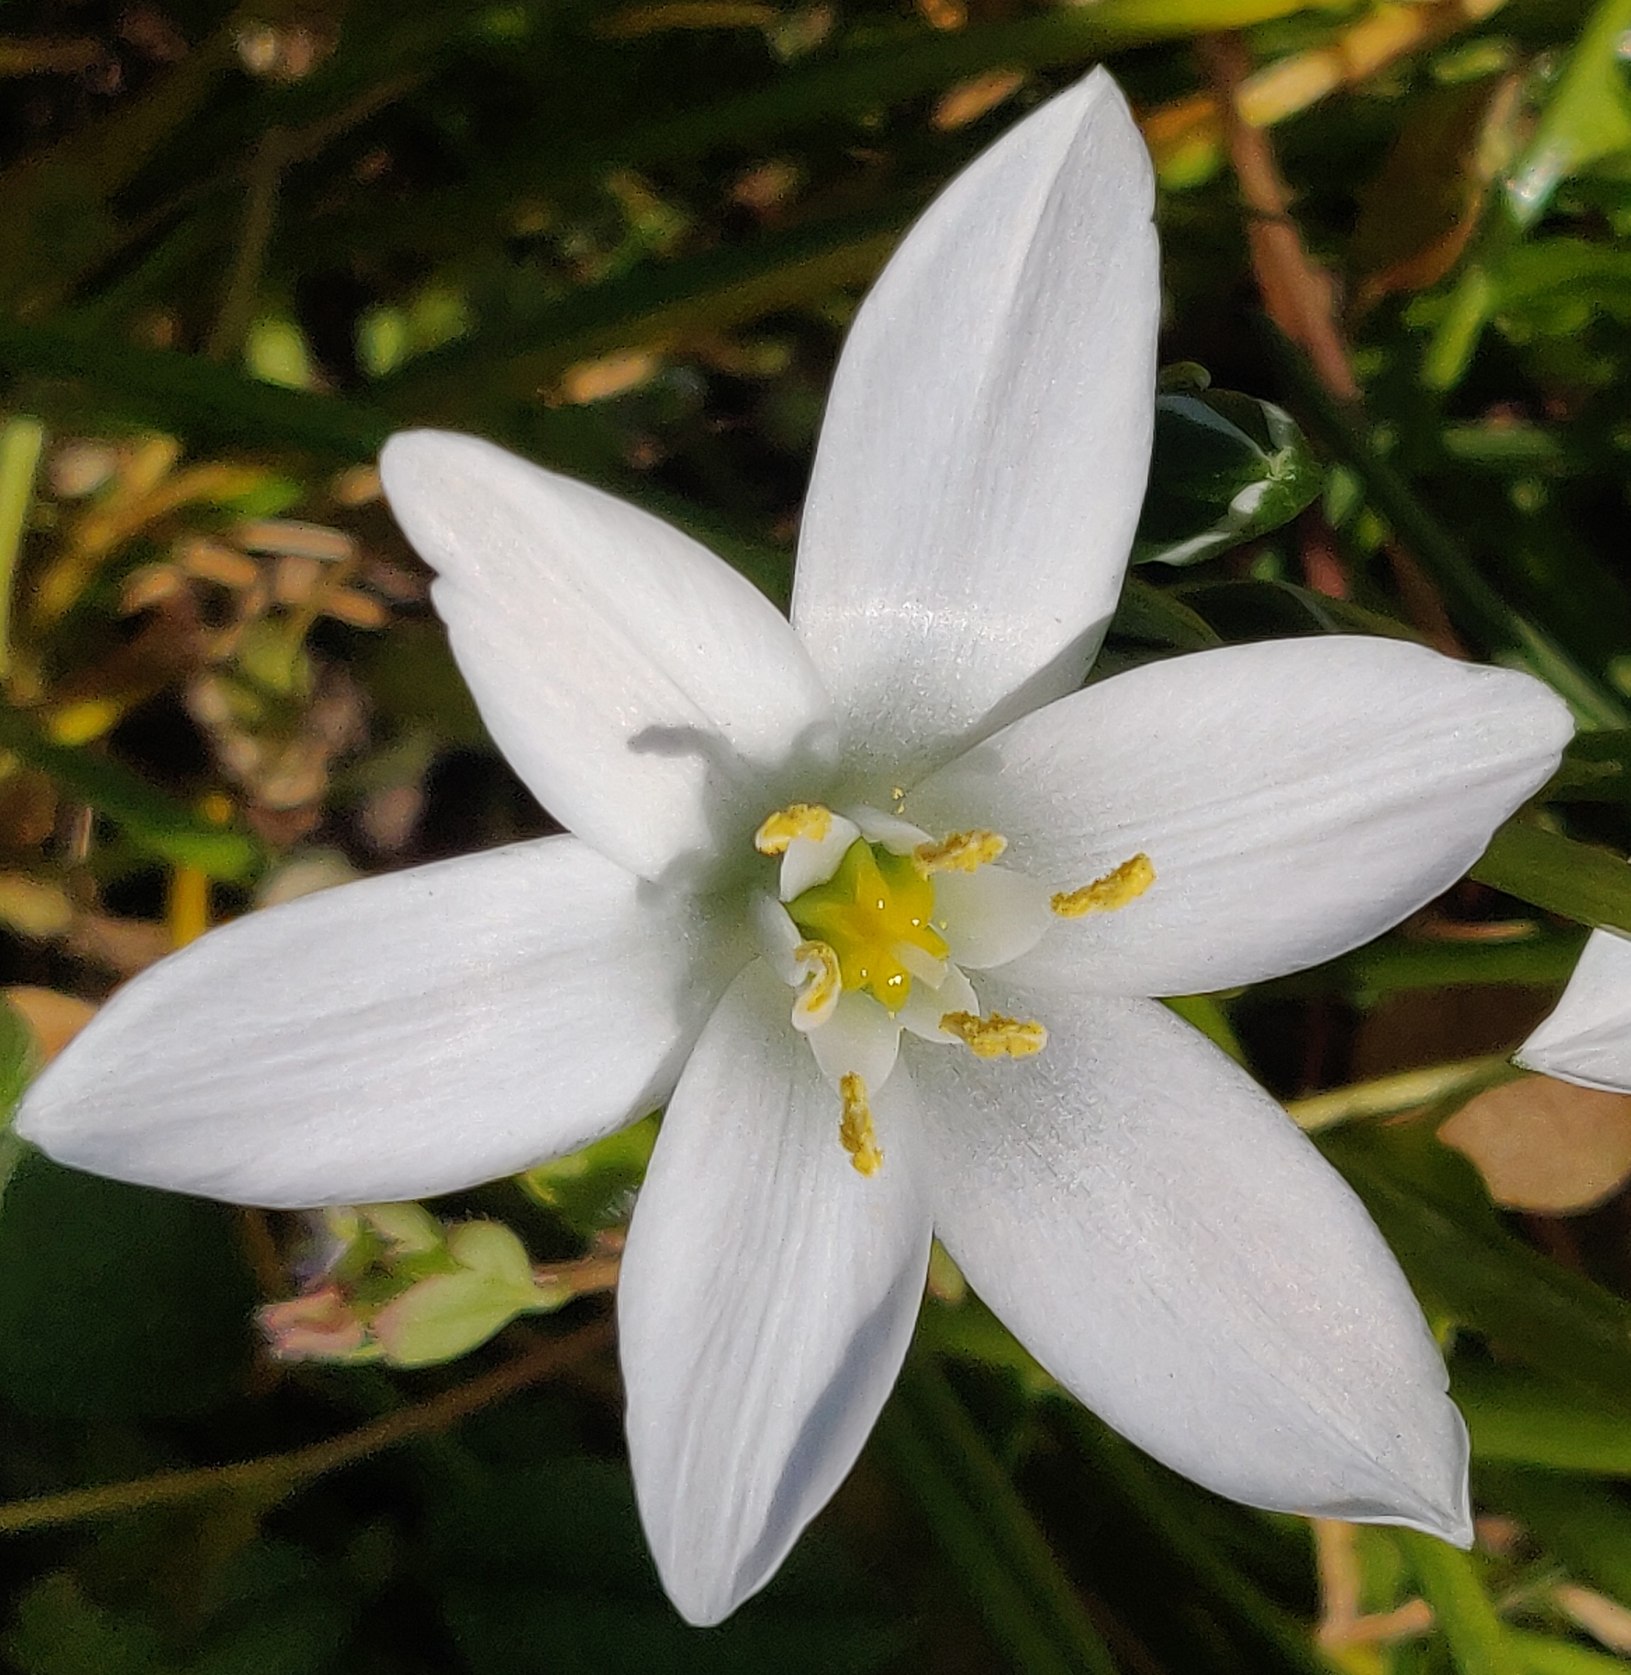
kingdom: Plantae
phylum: Tracheophyta
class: Liliopsida
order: Asparagales
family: Asparagaceae
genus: Ornithogalum
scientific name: Ornithogalum umbellatum
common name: Kost-fuglemælk
